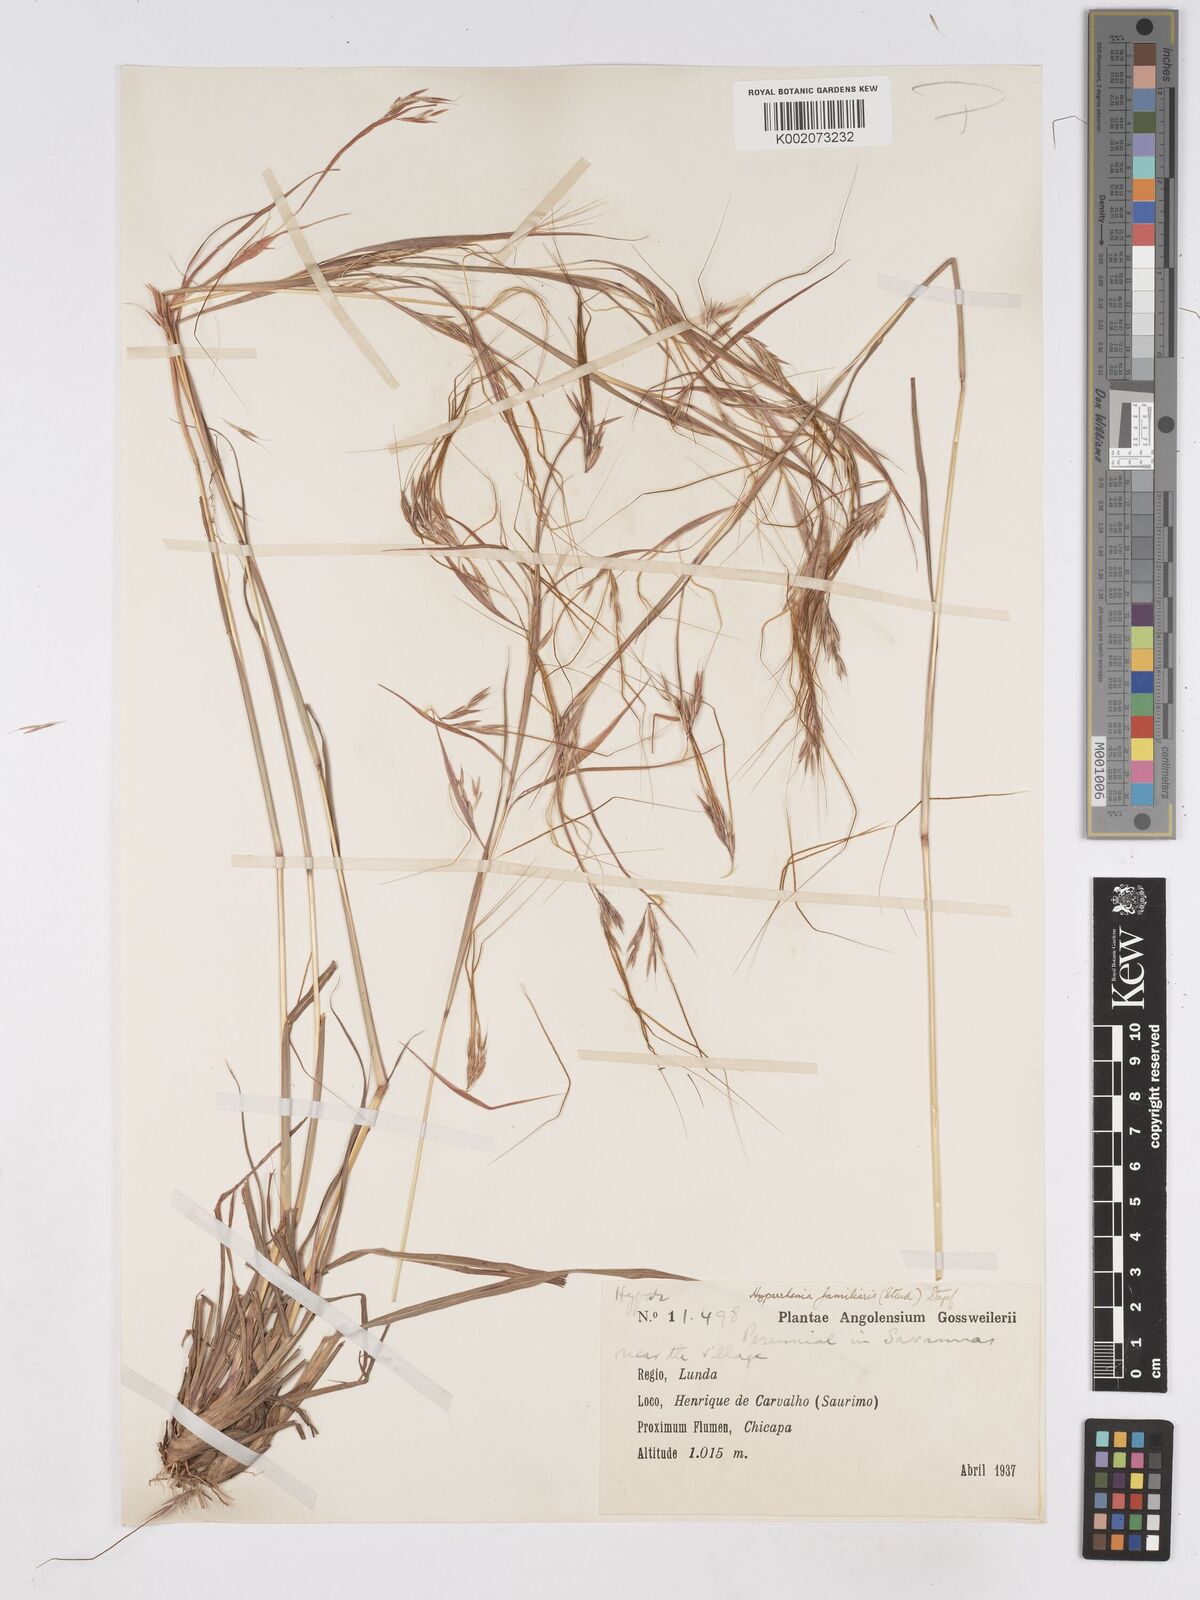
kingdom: Plantae
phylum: Tracheophyta
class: Liliopsida
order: Poales
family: Poaceae
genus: Hyparrhenia
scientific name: Hyparrhenia familiaris
